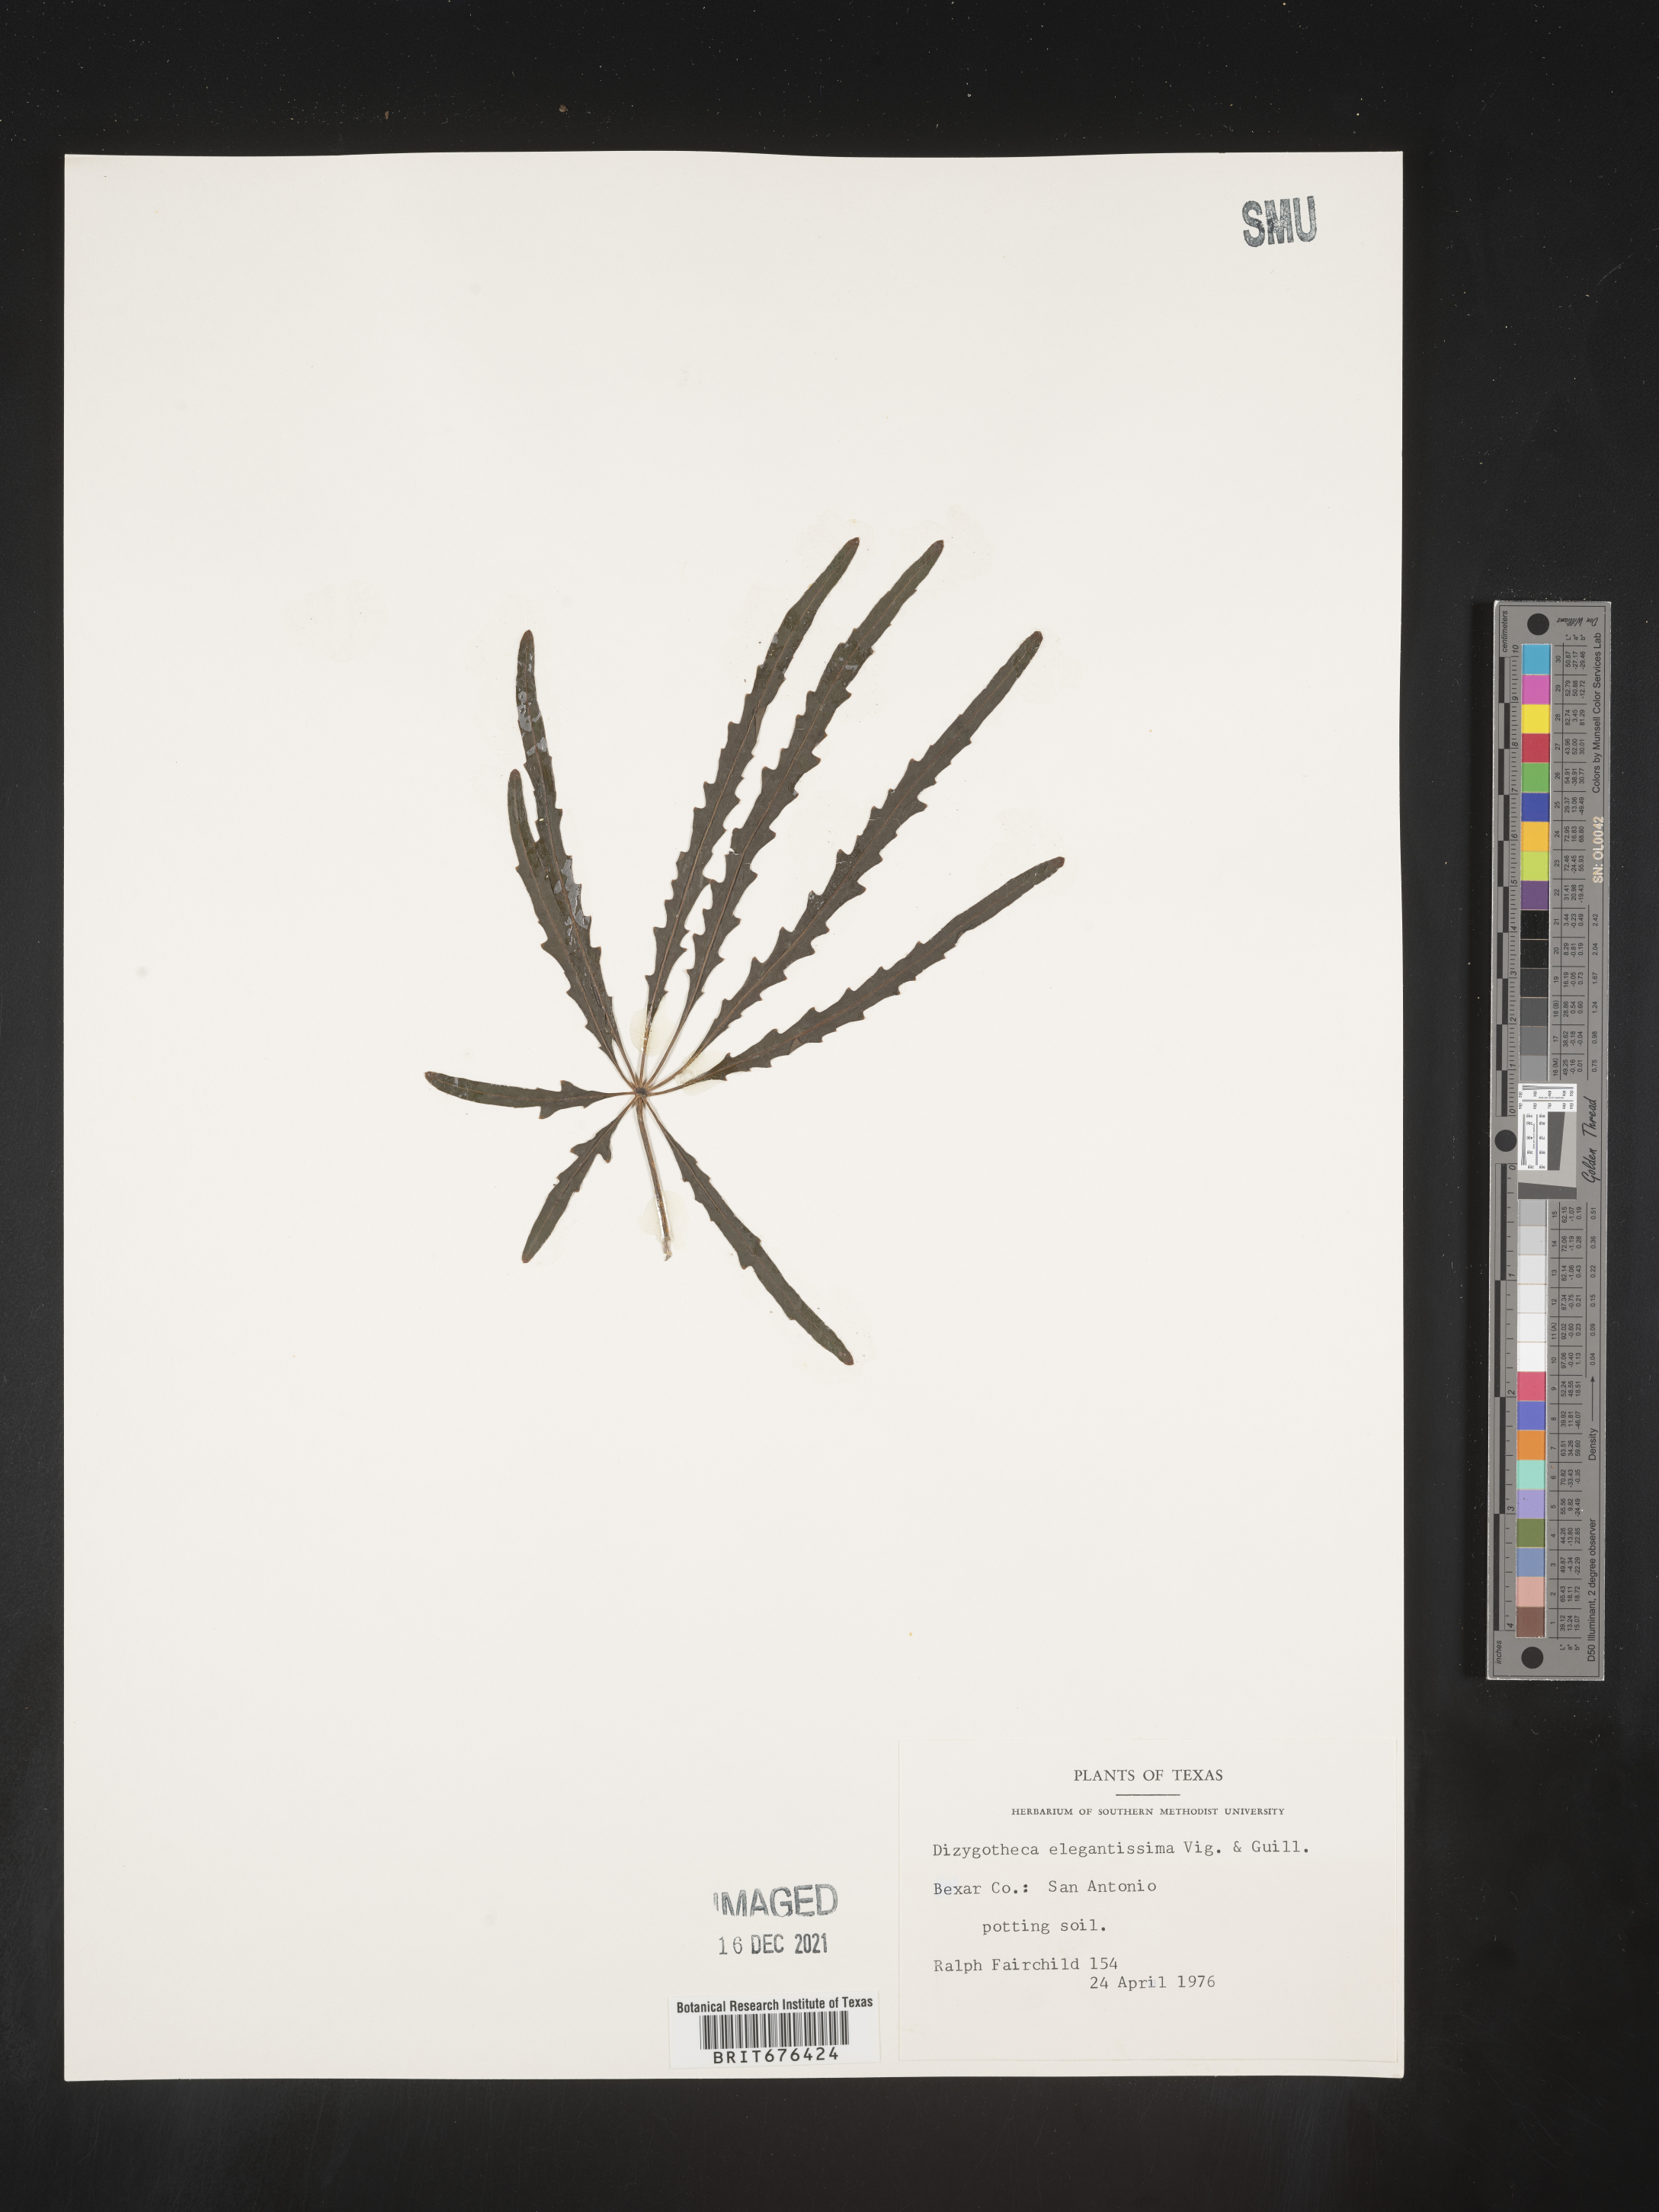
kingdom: Plantae
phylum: Tracheophyta
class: Magnoliopsida
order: Apiales
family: Araliaceae
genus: Plerandra
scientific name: Plerandra
